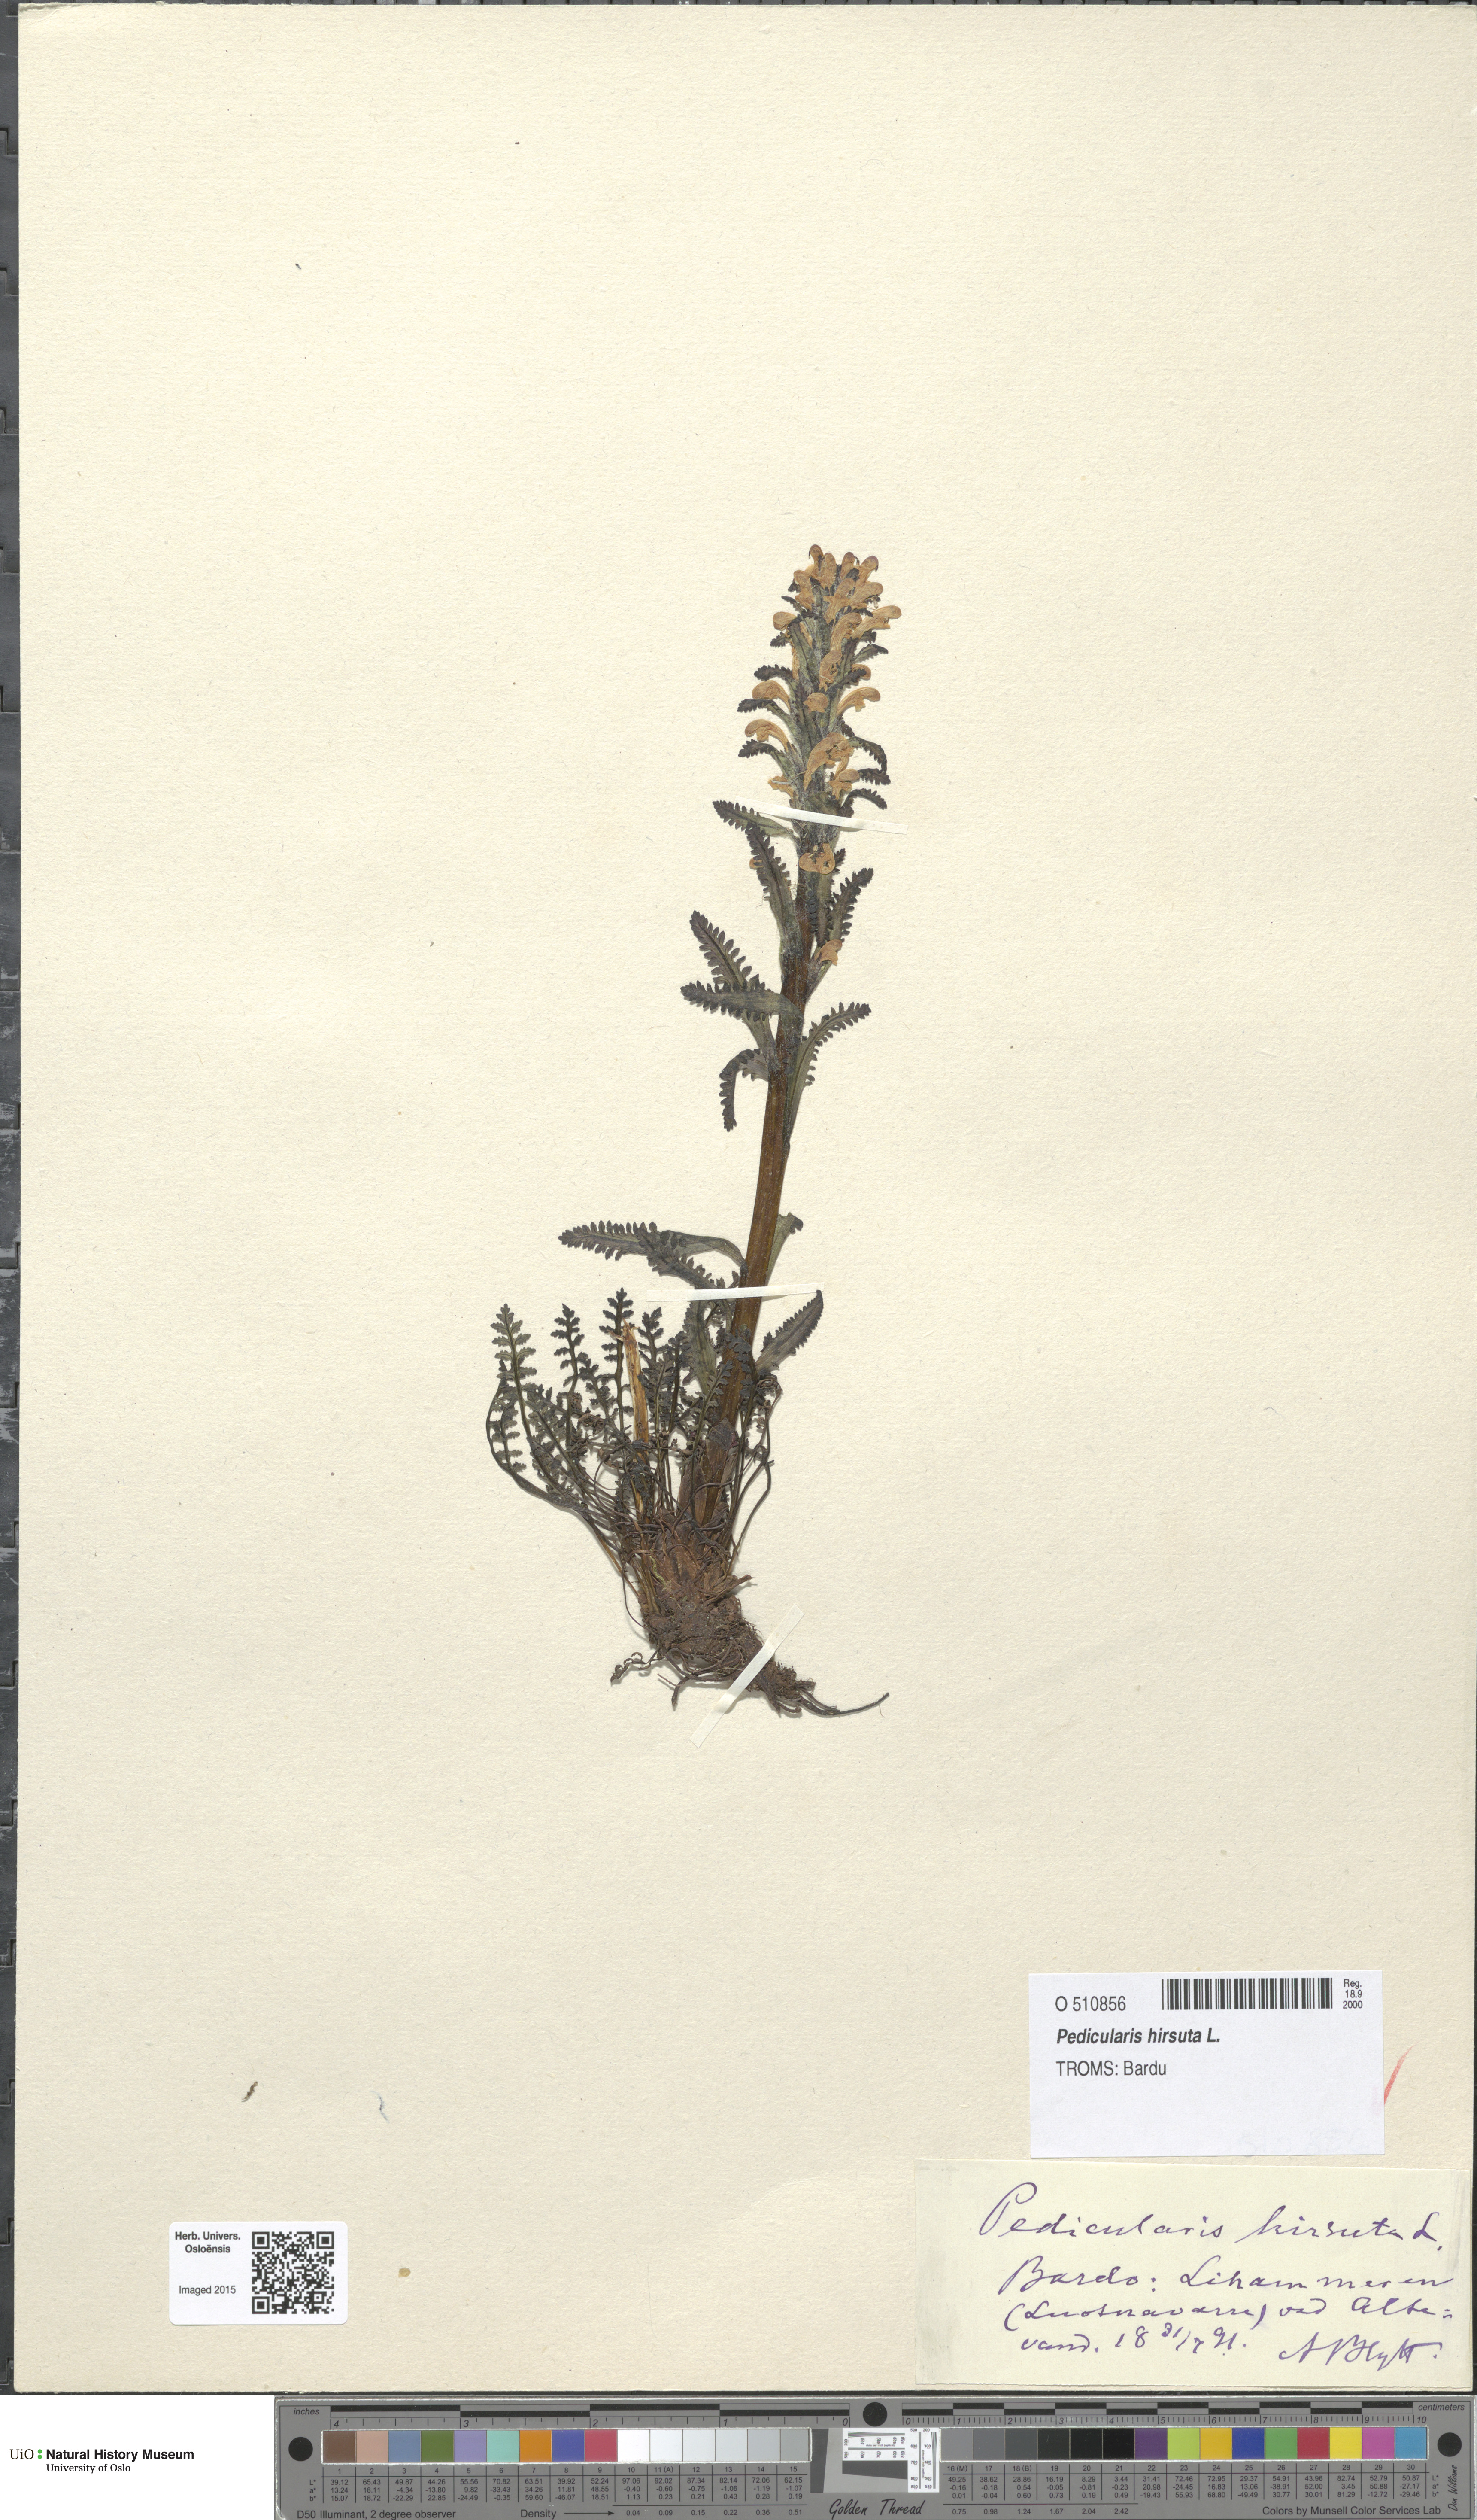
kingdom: Plantae
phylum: Tracheophyta
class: Magnoliopsida
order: Lamiales
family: Orobanchaceae
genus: Pedicularis
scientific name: Pedicularis hirsuta
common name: Hairy lousewort
